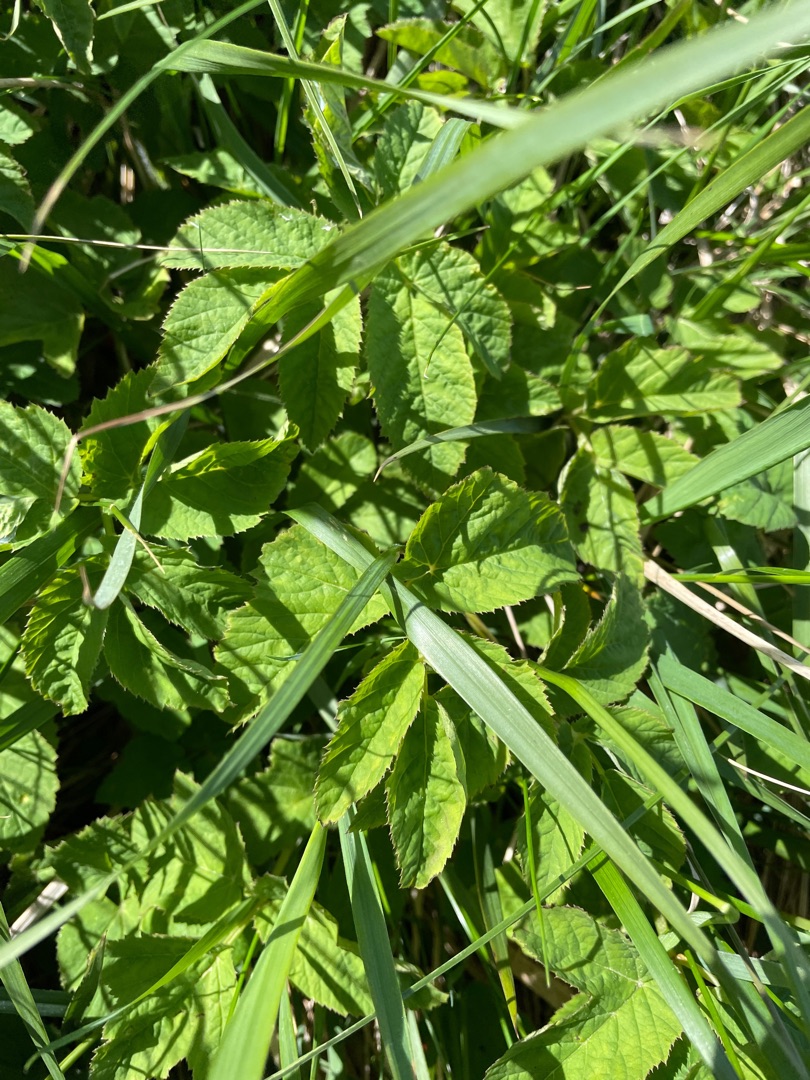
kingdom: Plantae
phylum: Tracheophyta
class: Magnoliopsida
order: Apiales
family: Apiaceae
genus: Aegopodium
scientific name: Aegopodium podagraria
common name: Skvalderkål
